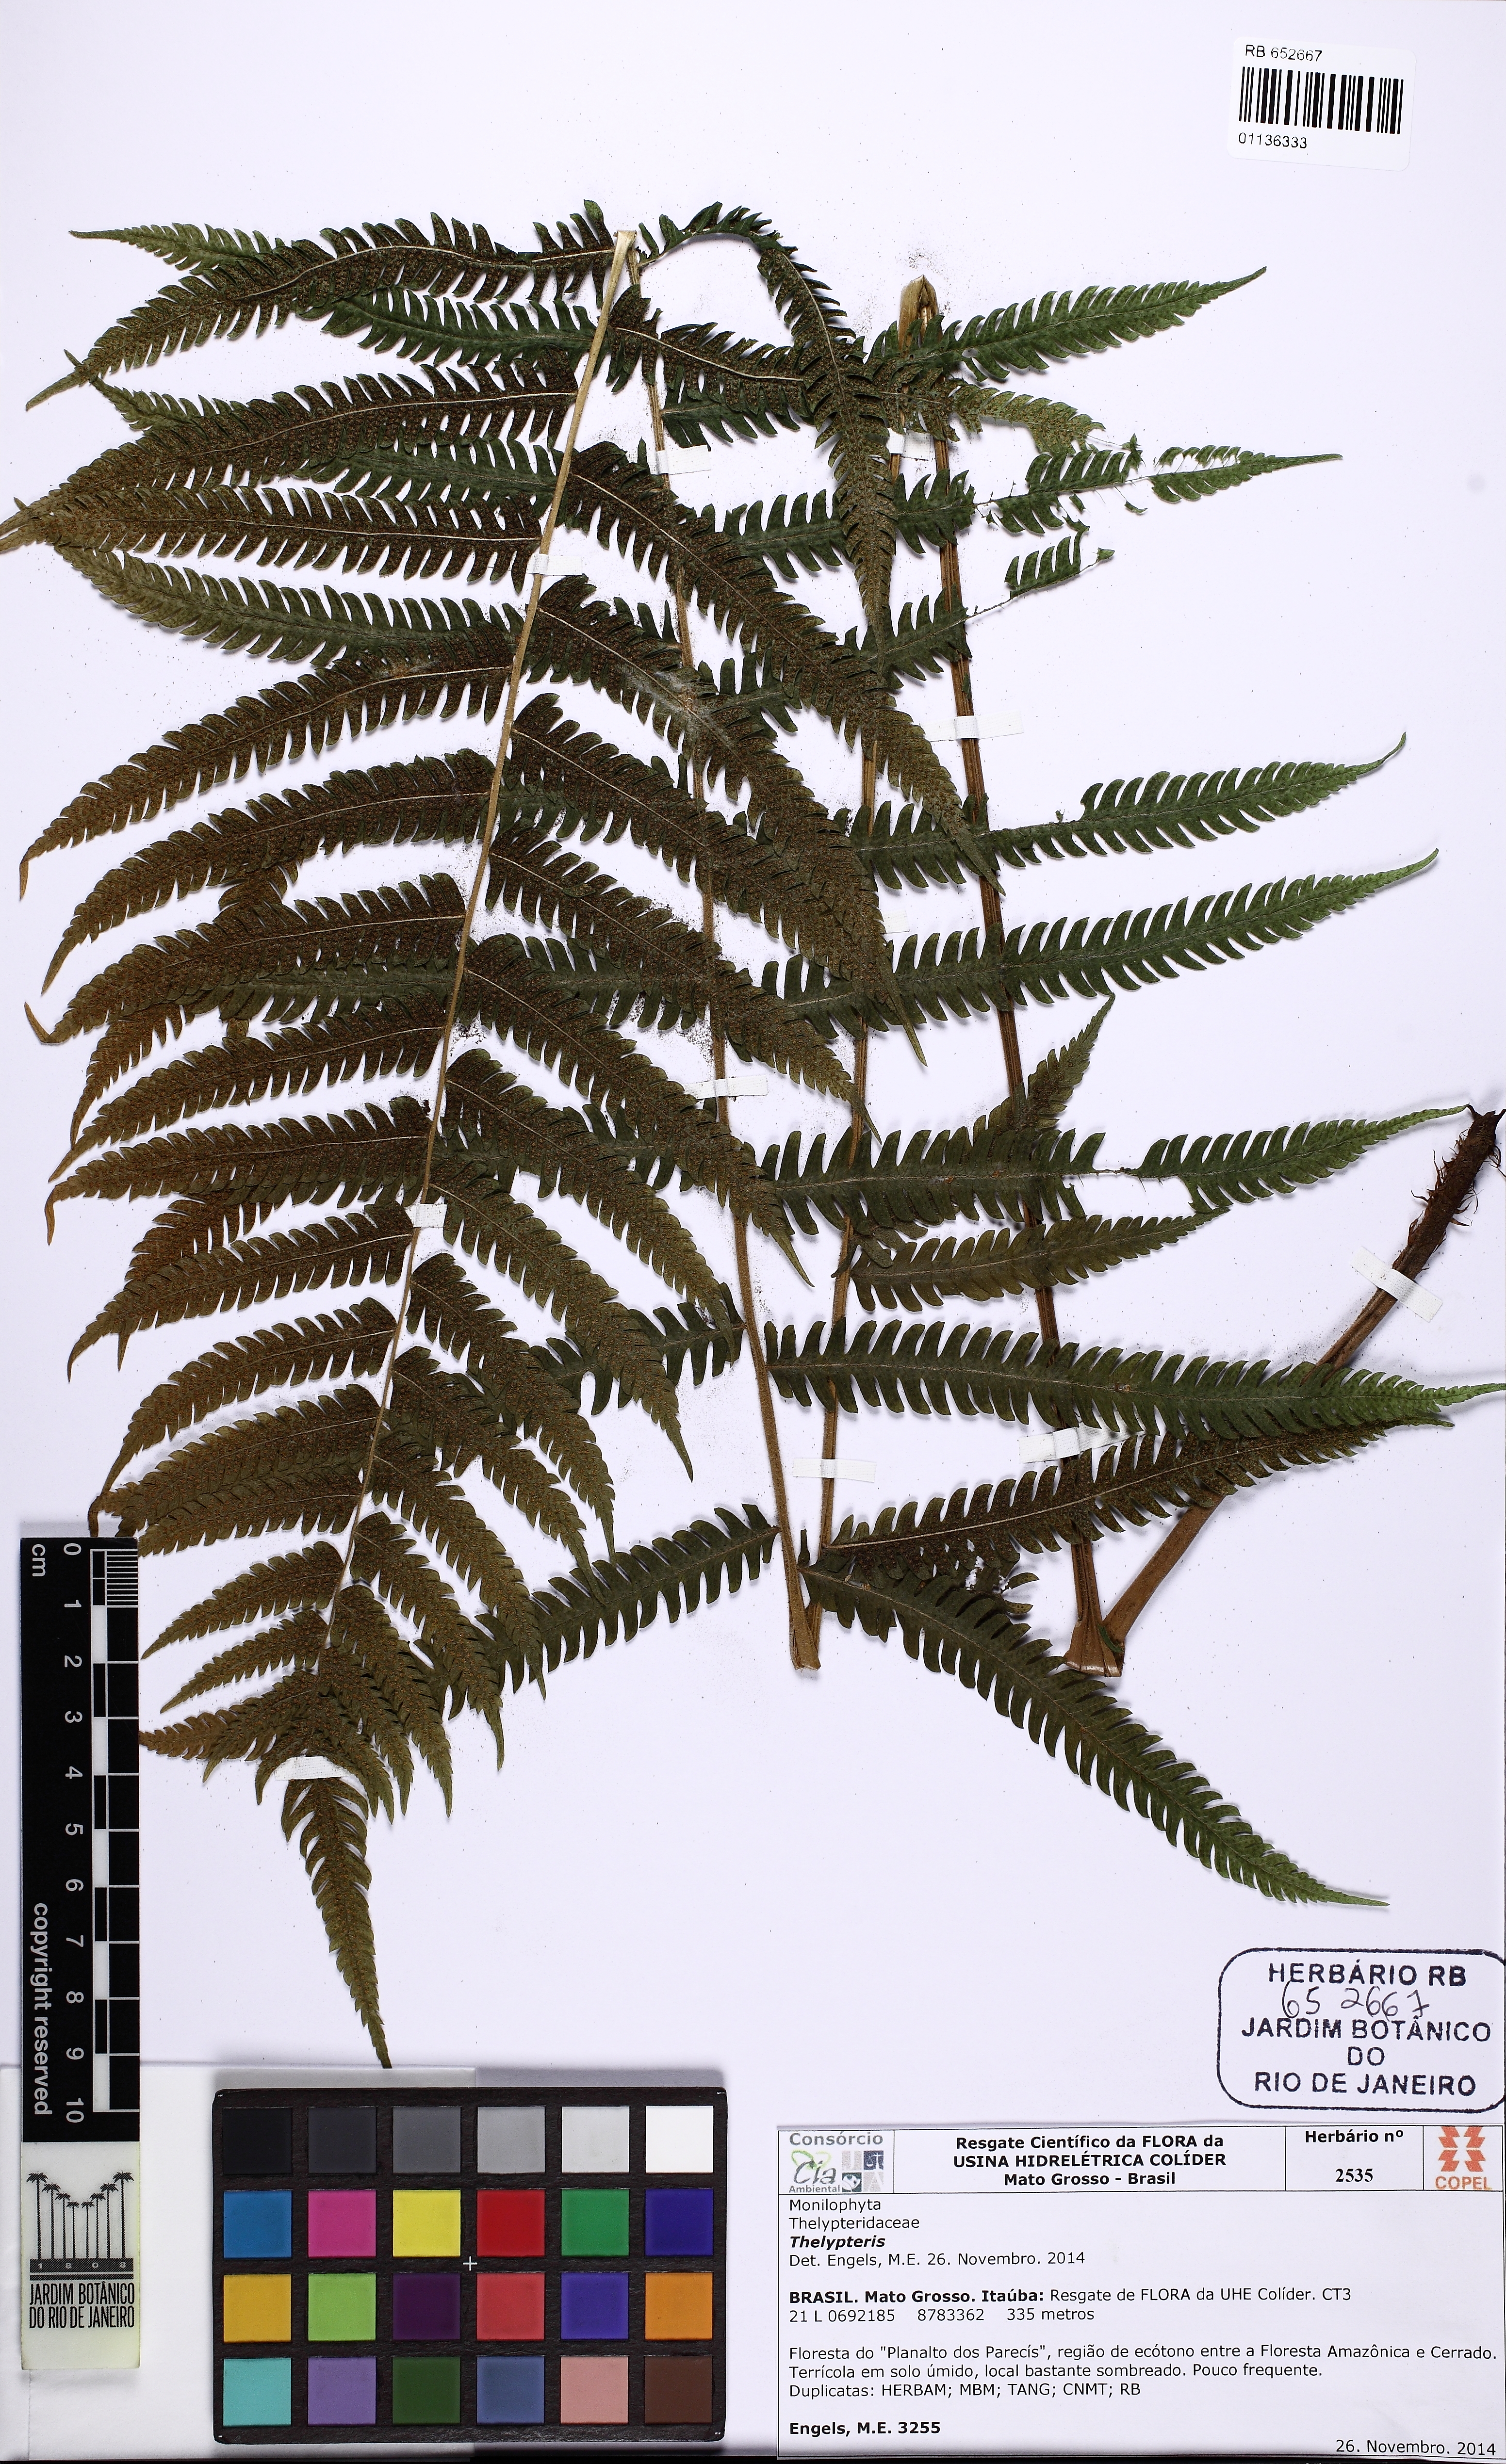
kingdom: Plantae
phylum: Tracheophyta
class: Polypodiopsida
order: Polypodiales
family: Thelypteridaceae
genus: Christella
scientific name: Christella conspersa
